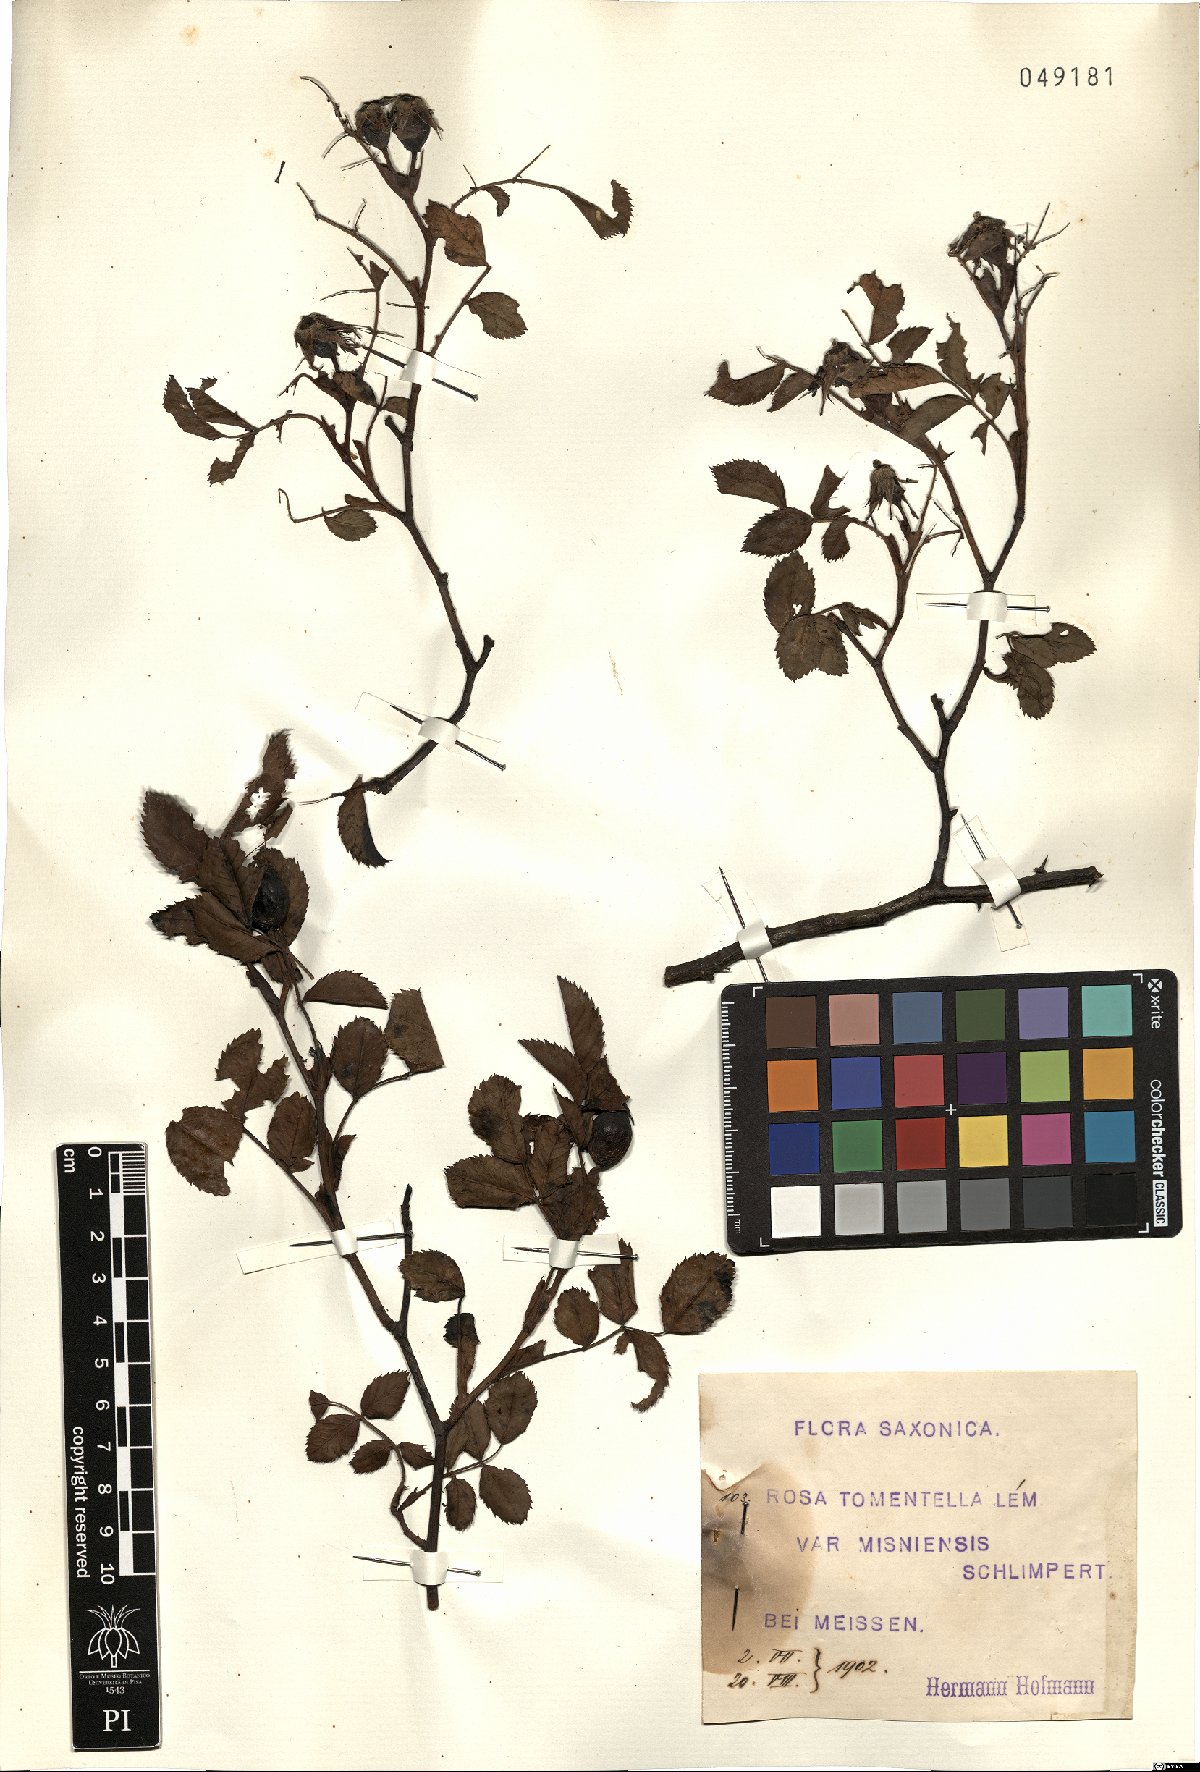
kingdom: Plantae
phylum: Tracheophyta
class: Magnoliopsida
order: Rosales
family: Rosaceae
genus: Rosa
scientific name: Rosa balsamica
